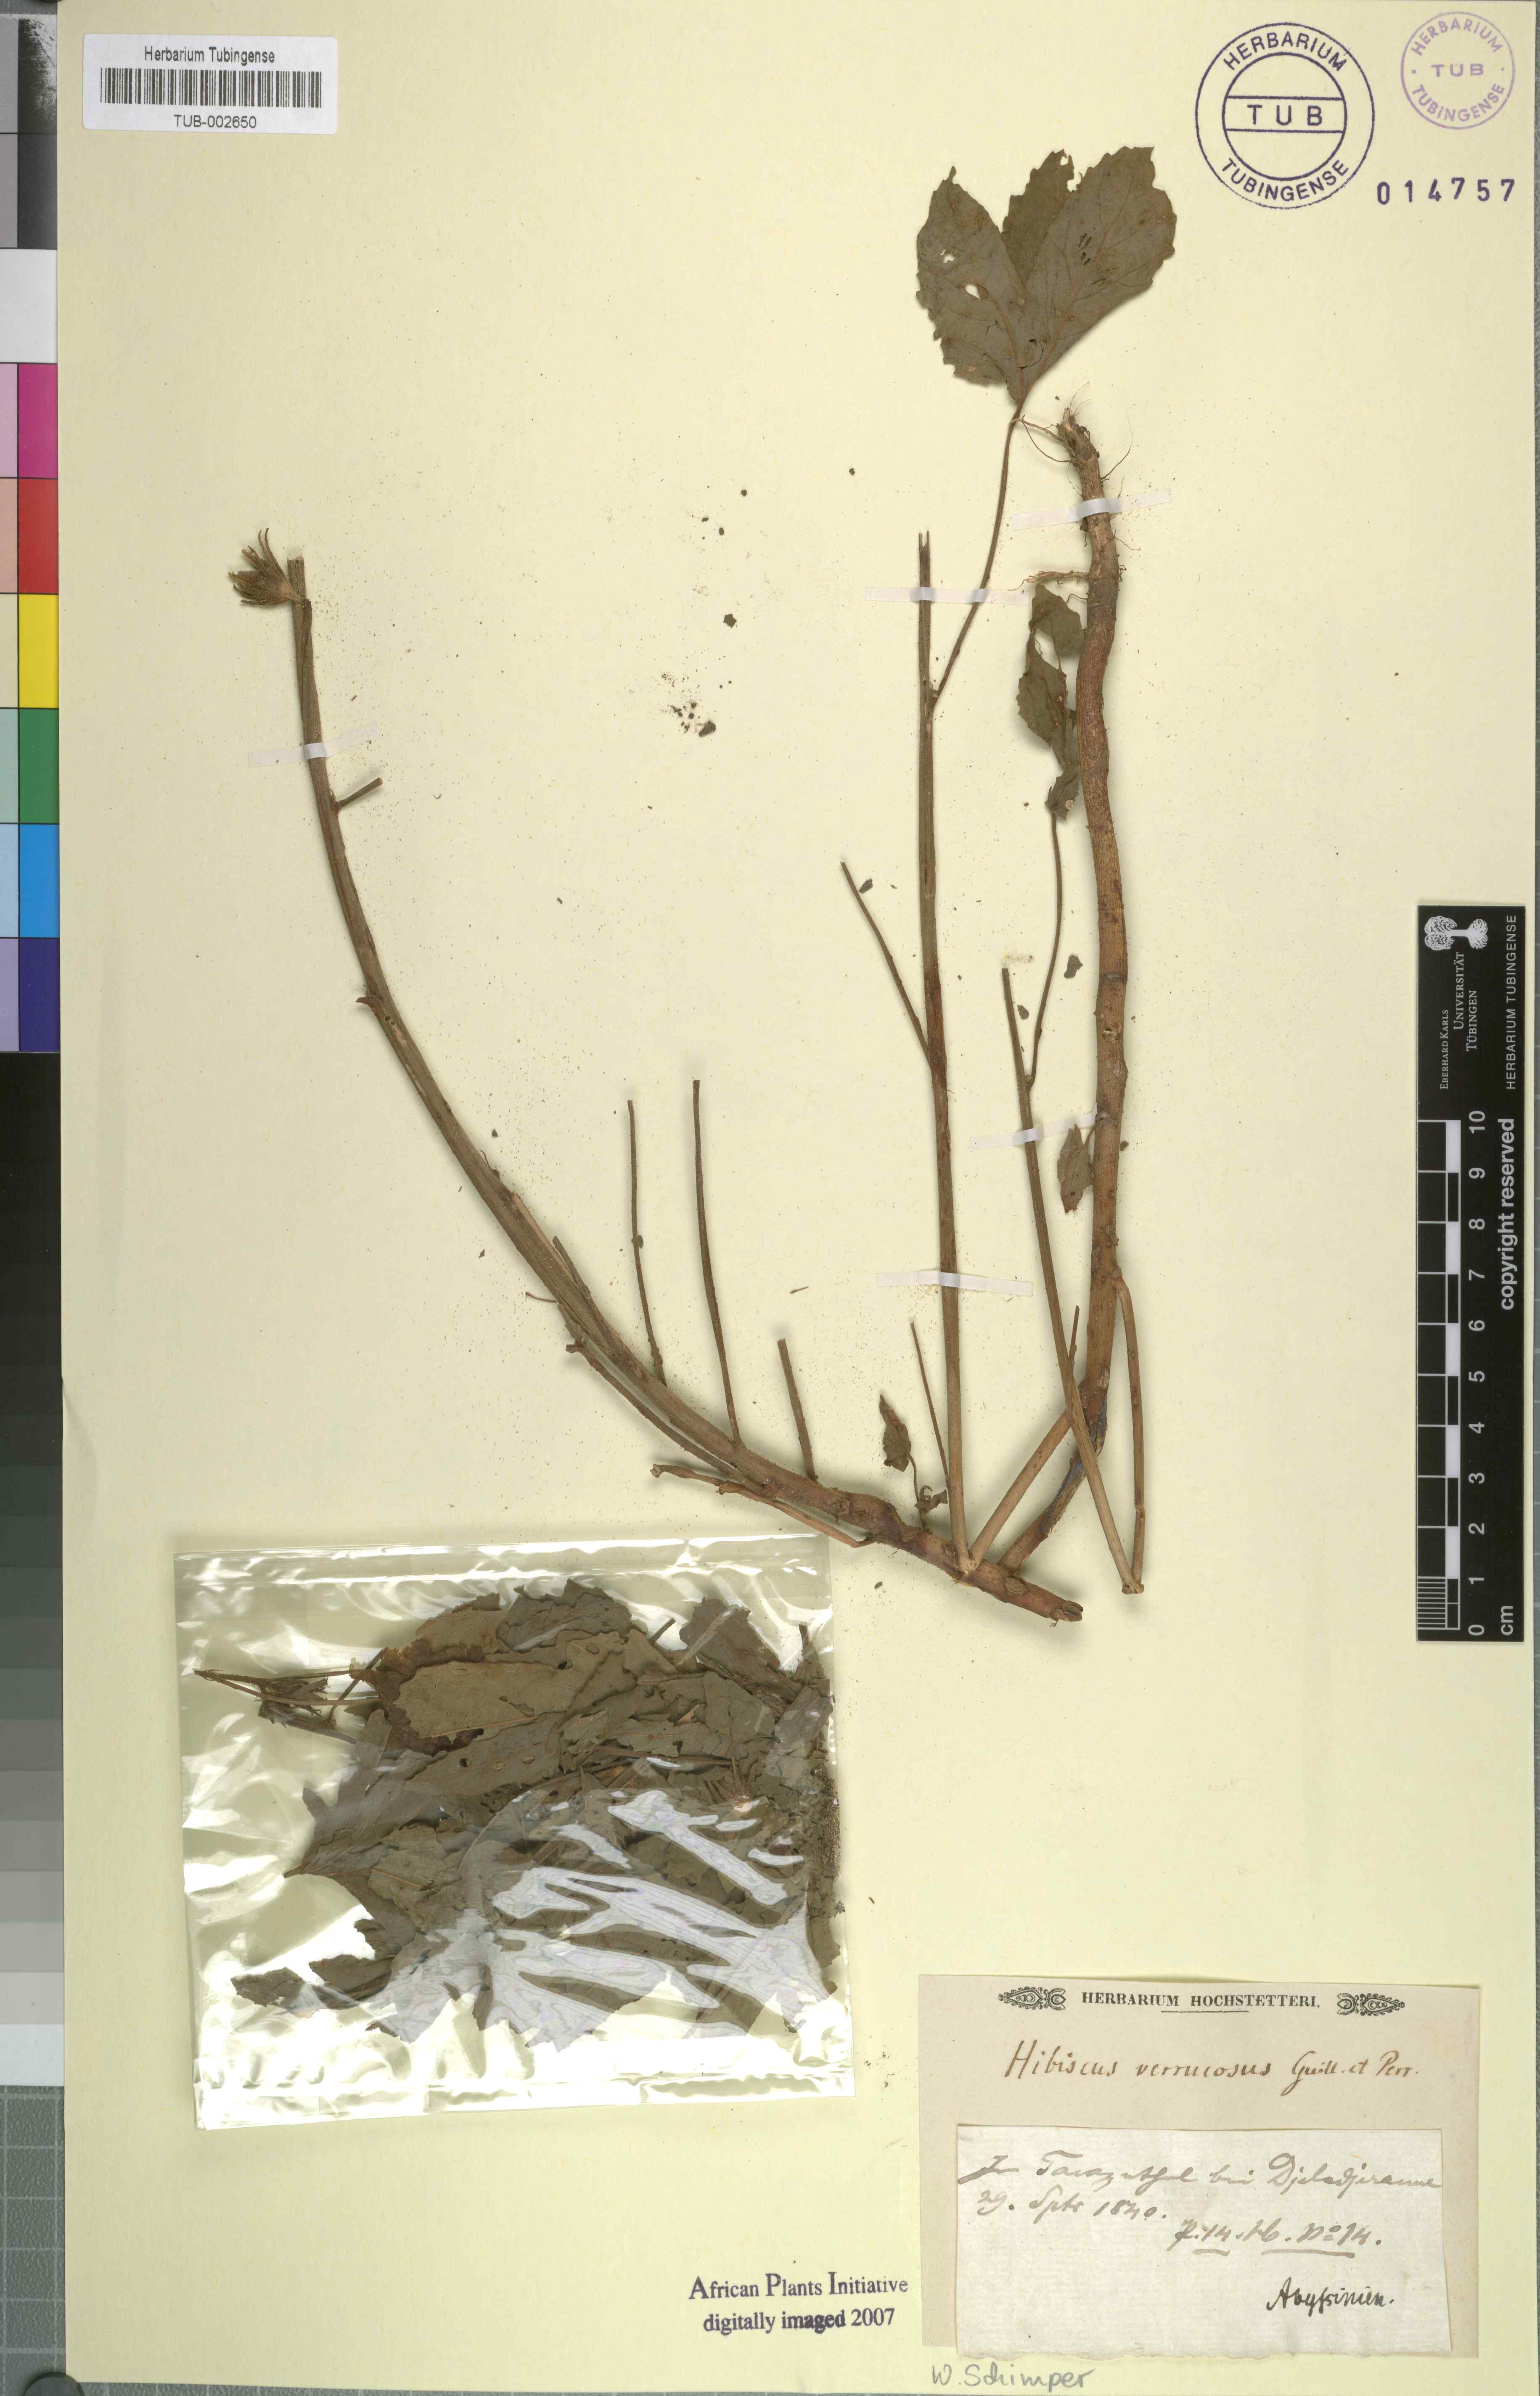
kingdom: Plantae
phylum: Tracheophyta
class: Magnoliopsida
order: Malvales
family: Malvaceae
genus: Hibiscus
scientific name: Hibiscus cannabinus
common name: Brown indianhemp
